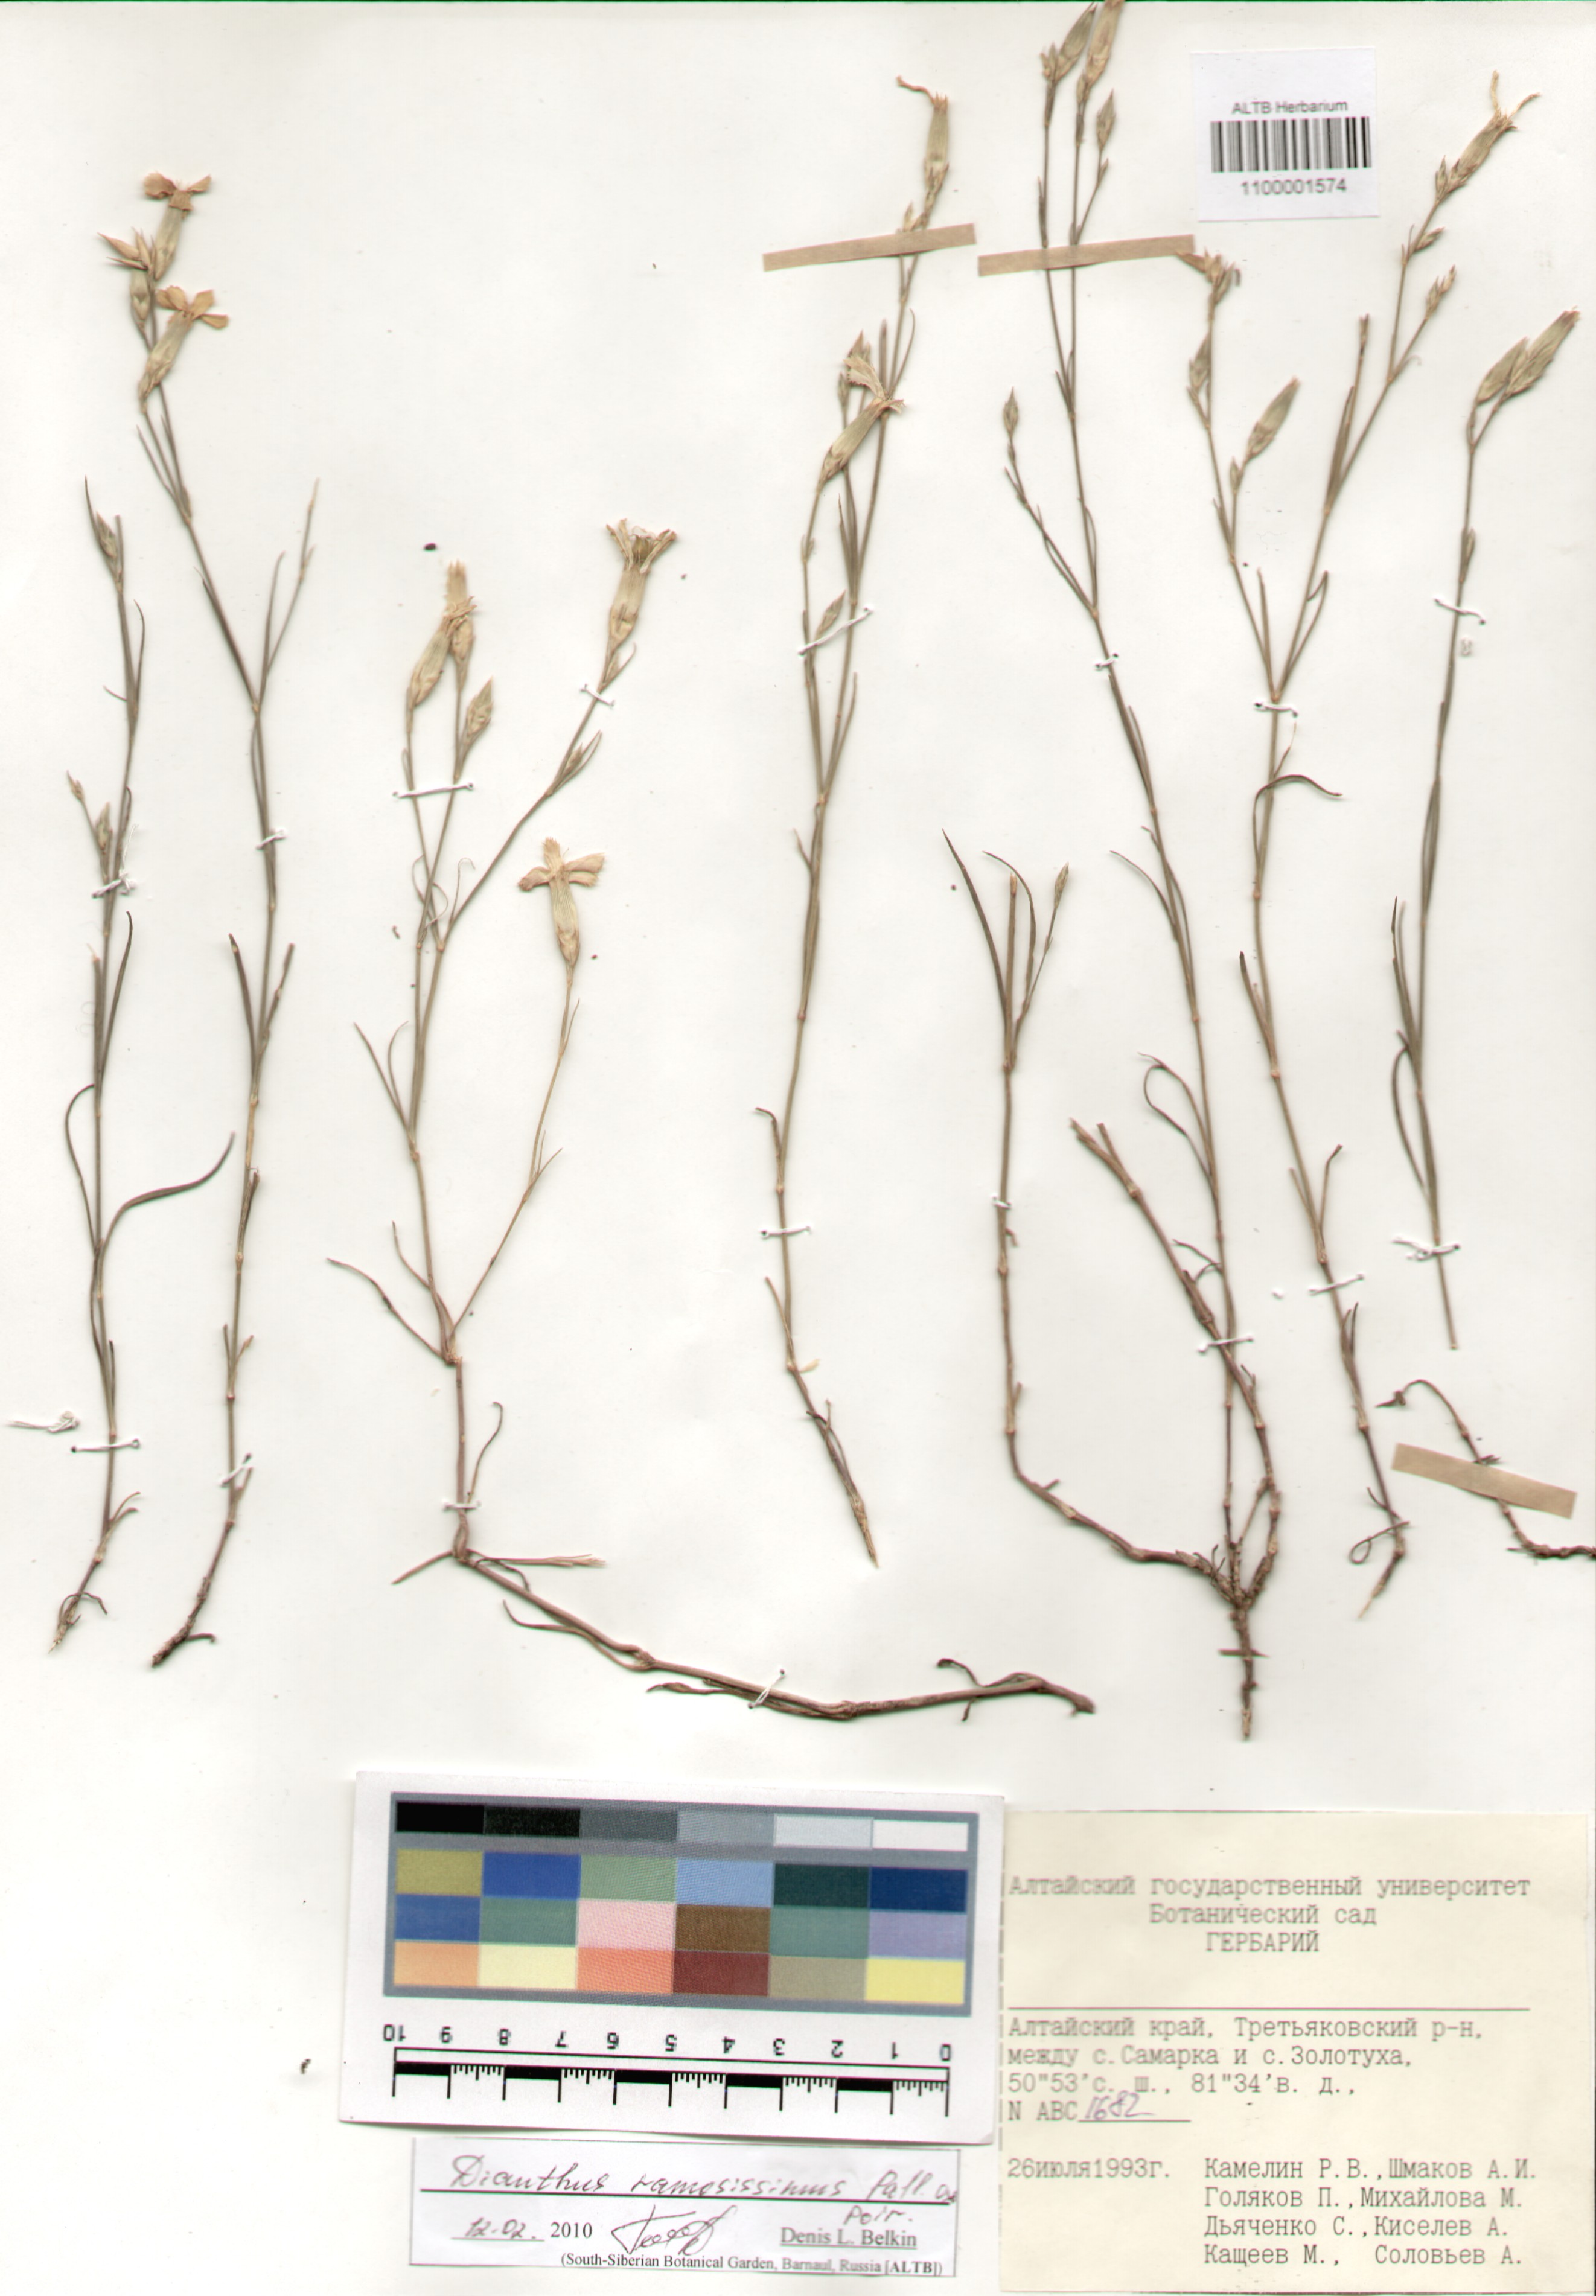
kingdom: Plantae
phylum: Tracheophyta
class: Magnoliopsida
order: Caryophyllales
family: Caryophyllaceae
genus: Dianthus
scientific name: Dianthus ramosissimus
